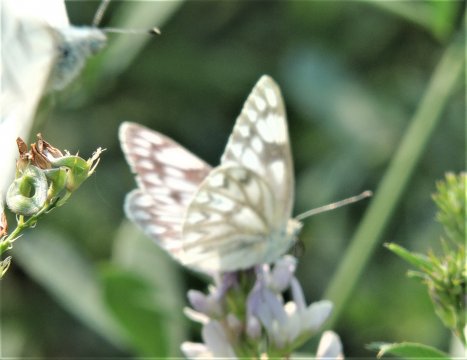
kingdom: Animalia
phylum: Arthropoda
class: Insecta
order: Lepidoptera
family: Pieridae
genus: Pontia
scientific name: Pontia occidentalis
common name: Western White
